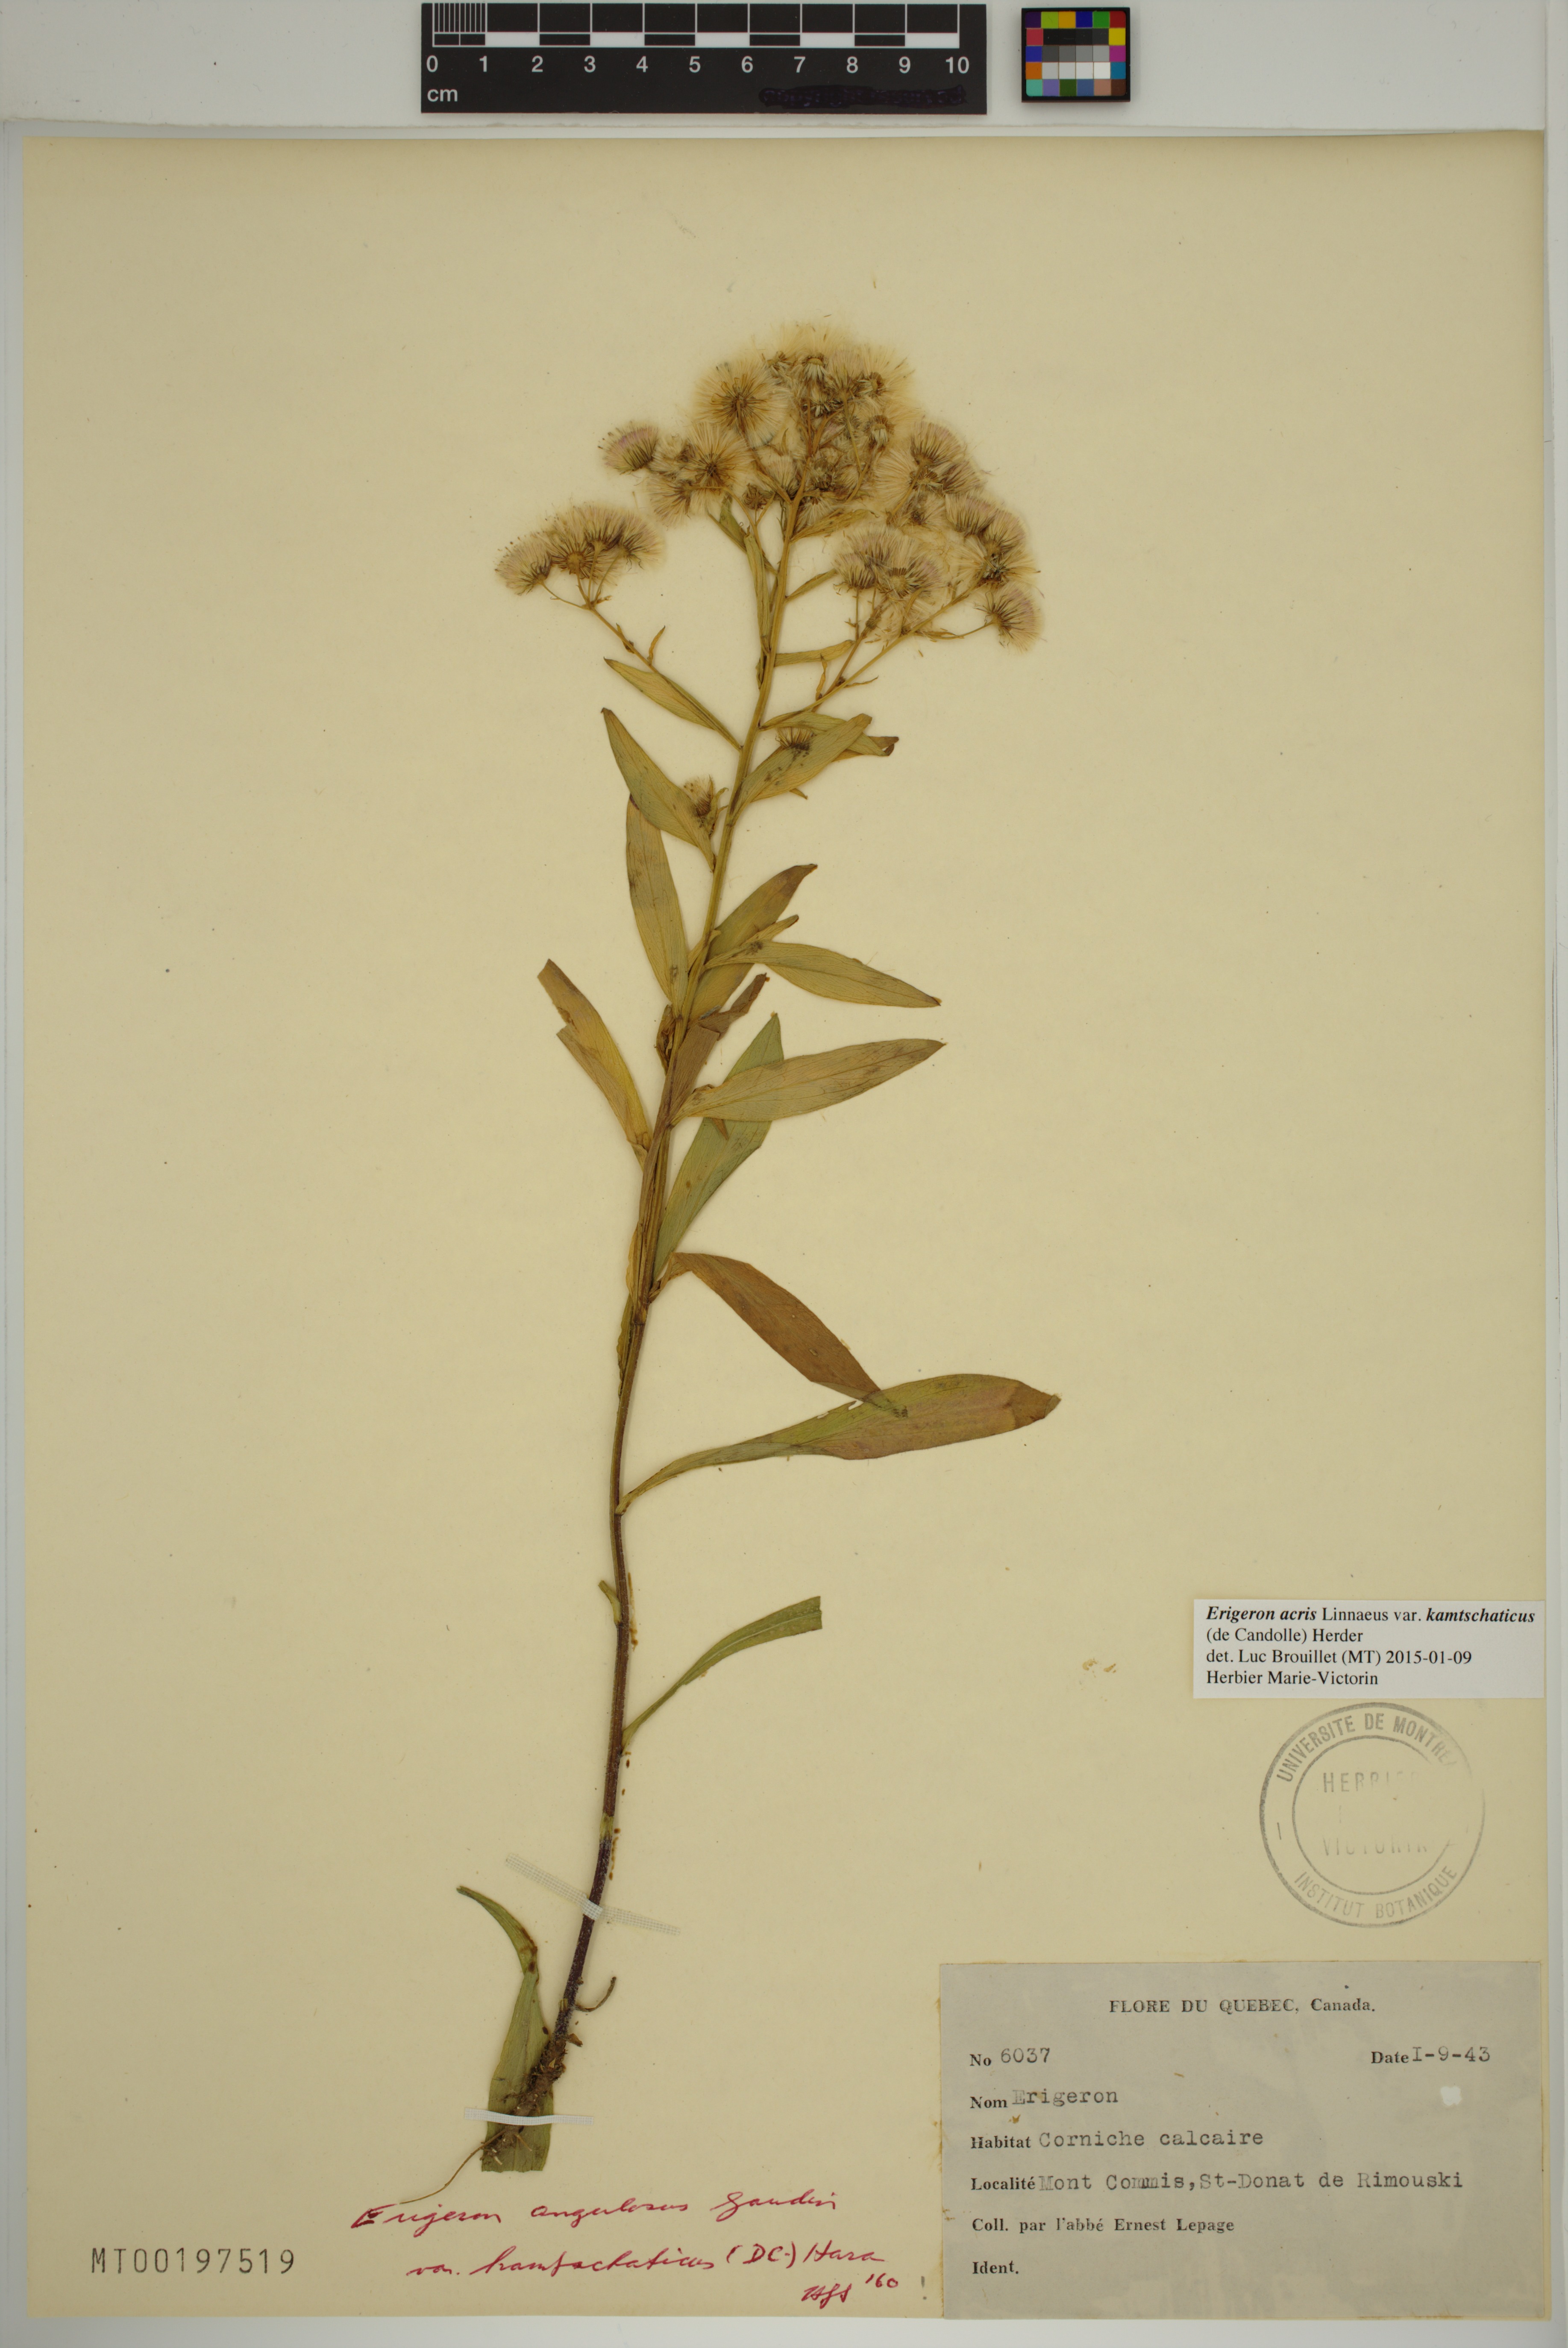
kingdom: Plantae
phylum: Tracheophyta
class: Magnoliopsida
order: Asterales
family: Asteraceae
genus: Erigeron
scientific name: Erigeron kamtschaticus
